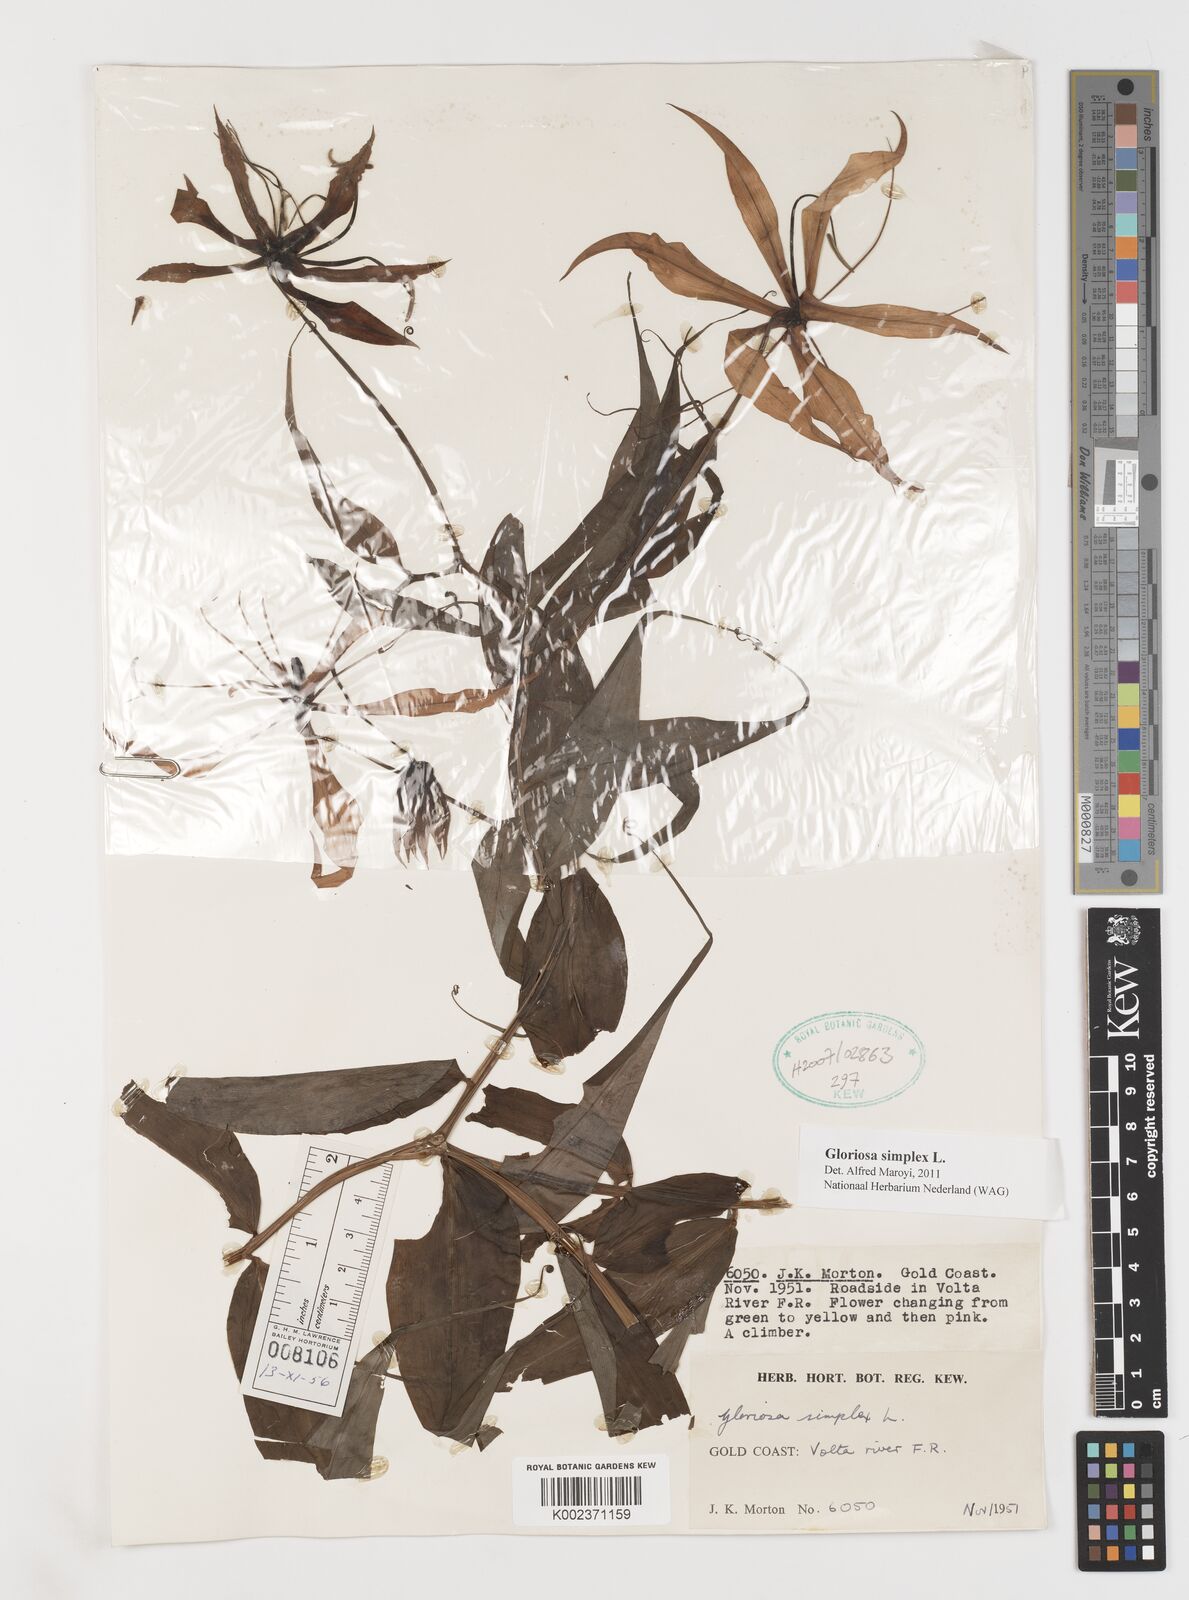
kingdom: Plantae
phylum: Tracheophyta
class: Liliopsida
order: Liliales
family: Colchicaceae
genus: Gloriosa
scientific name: Gloriosa simplex
